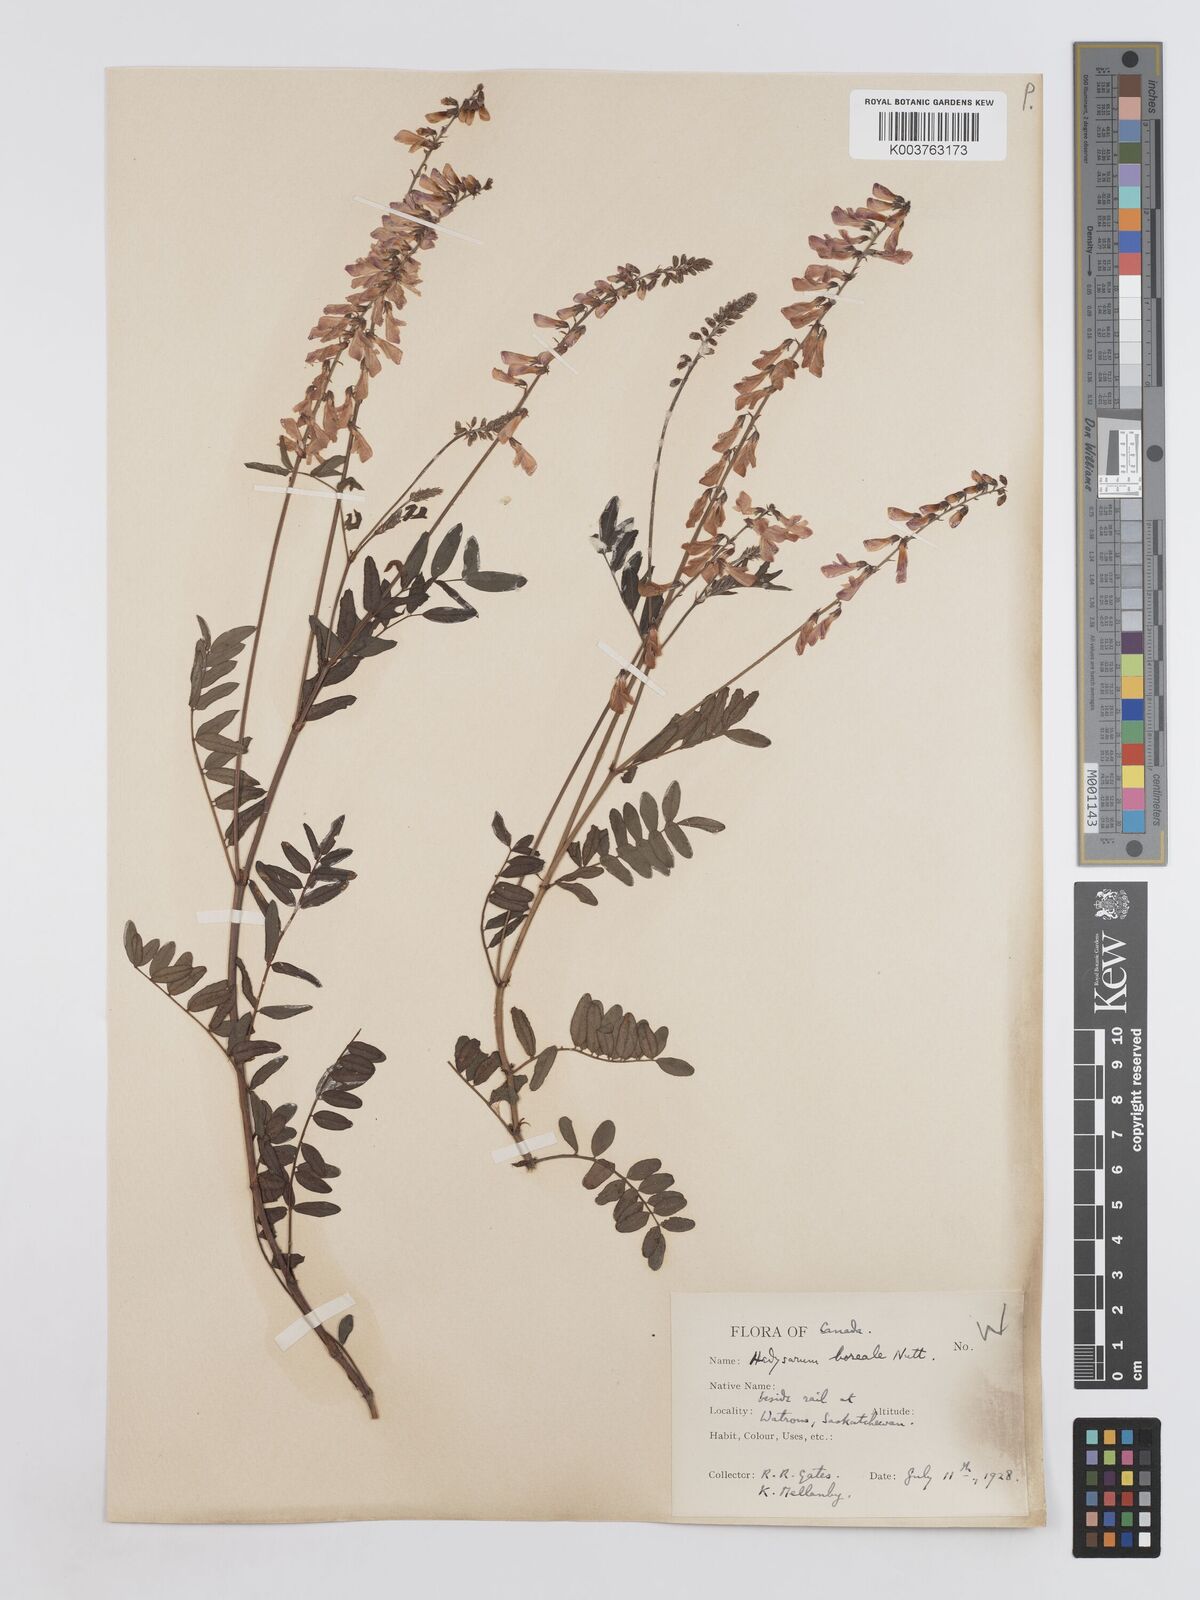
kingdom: Plantae
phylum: Tracheophyta
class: Magnoliopsida
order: Fabales
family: Fabaceae
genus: Hedysarum
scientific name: Hedysarum boreale
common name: Northern sweet-vetch
